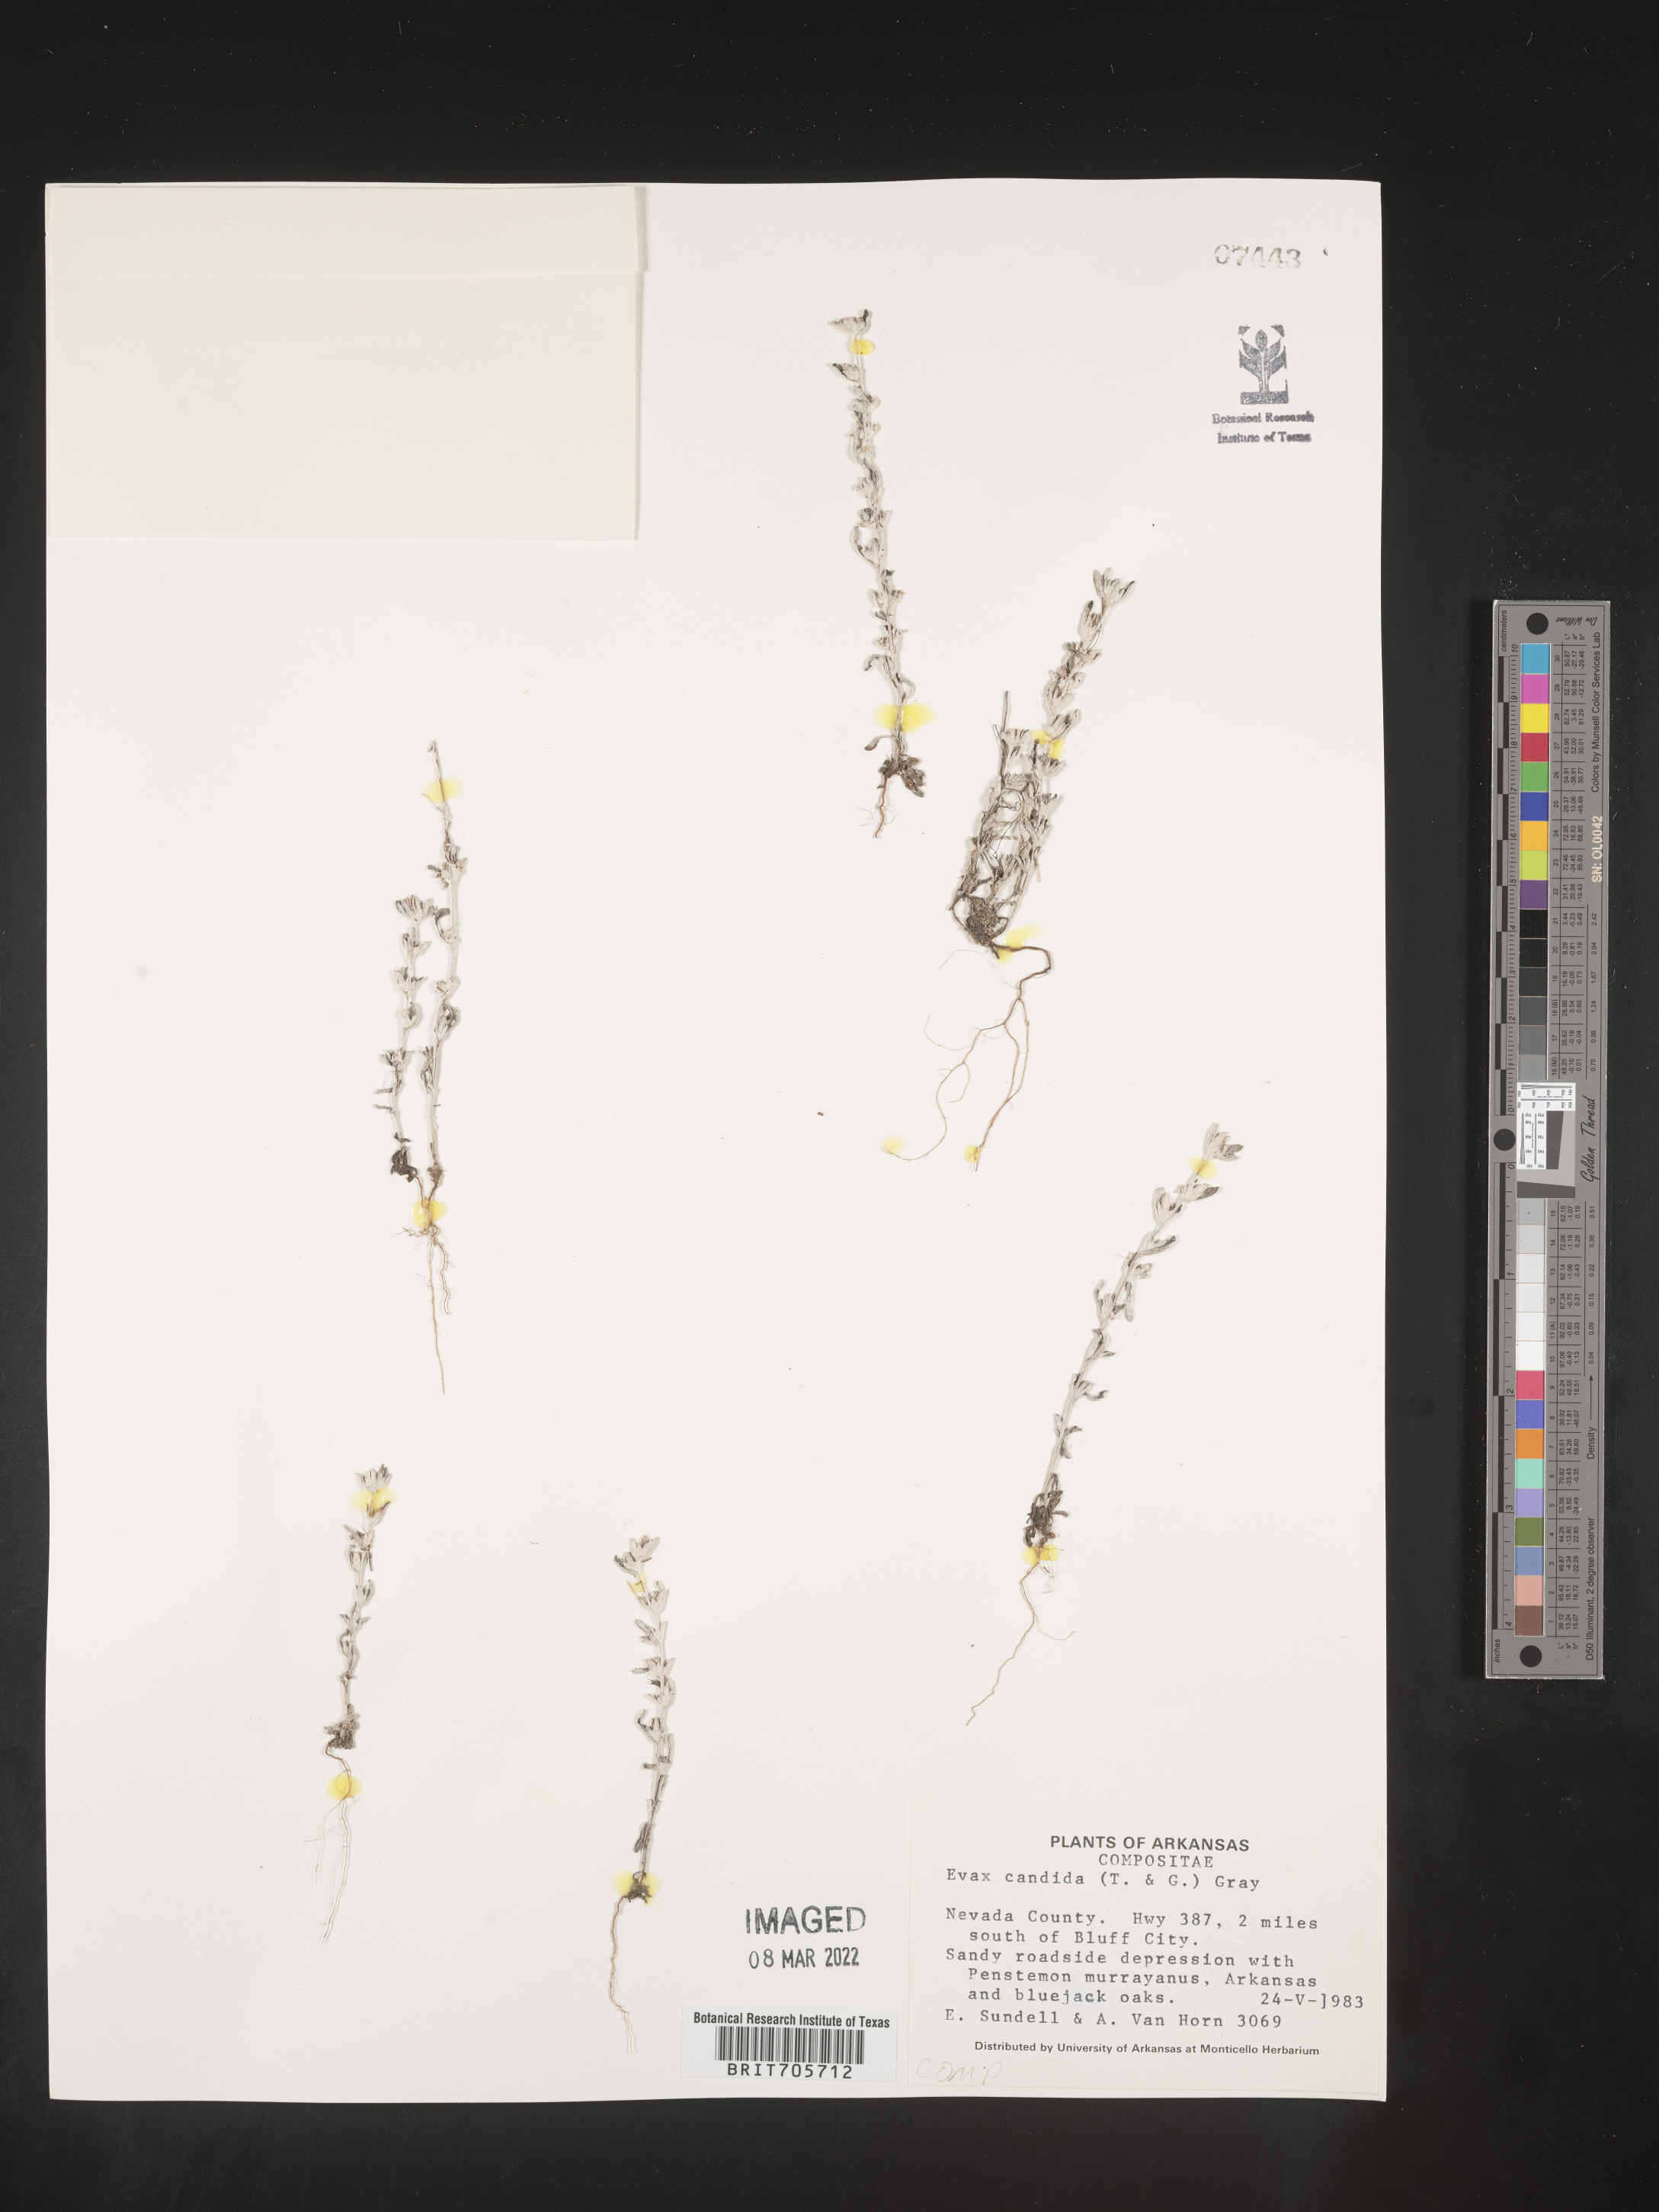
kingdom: Plantae
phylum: Tracheophyta
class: Magnoliopsida
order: Asterales
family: Asteraceae
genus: Diaperia
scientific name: Diaperia candida
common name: Silver rabbit-tobacco
